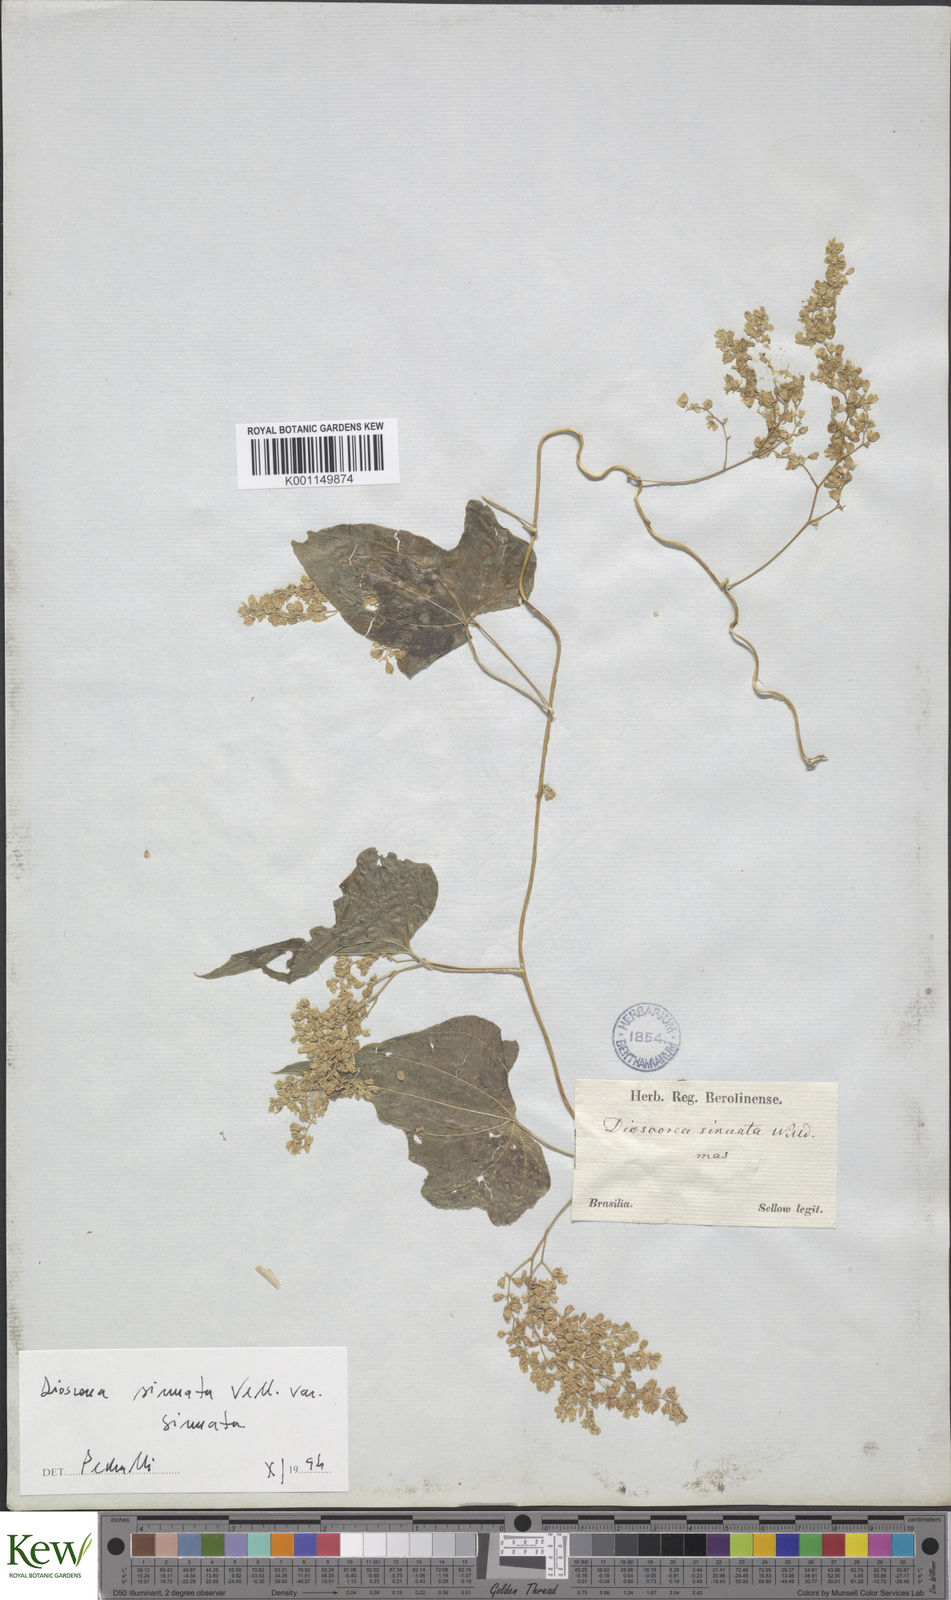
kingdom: Plantae
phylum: Tracheophyta
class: Liliopsida
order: Dioscoreales
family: Dioscoreaceae
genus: Dioscorea
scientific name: Dioscorea sinuata
